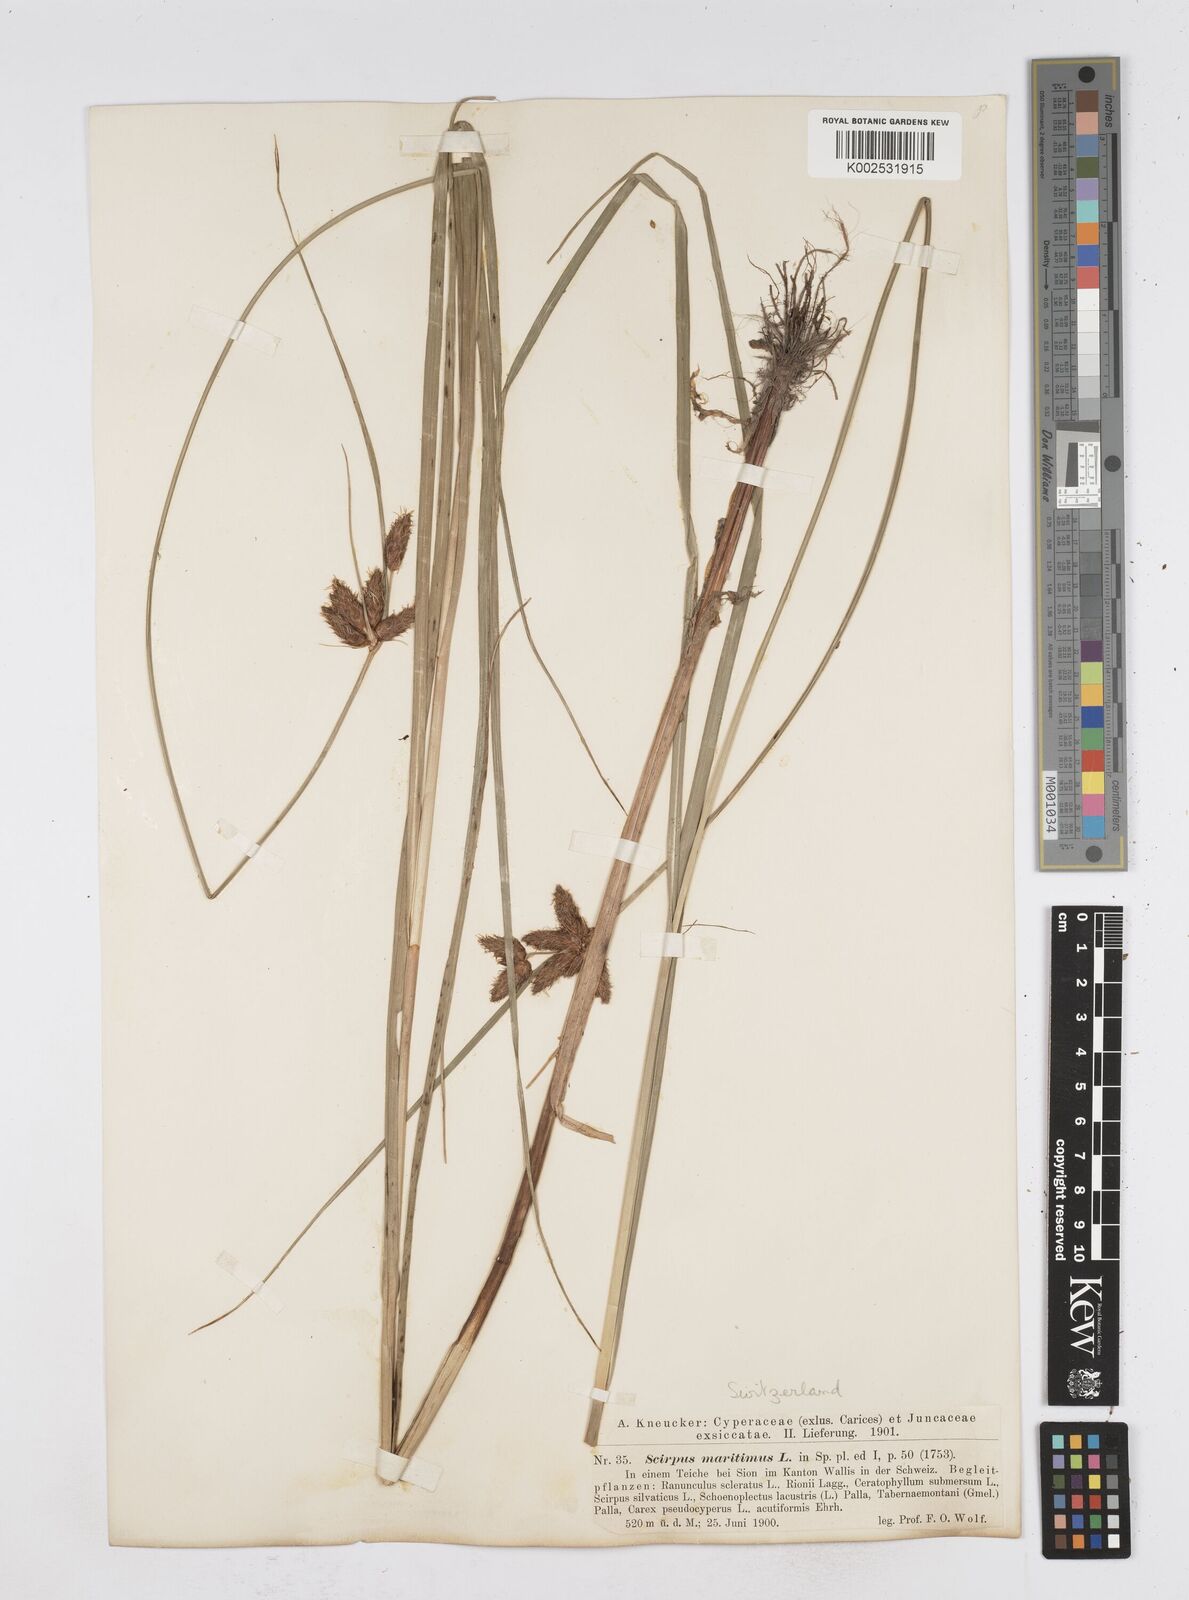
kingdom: Plantae
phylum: Tracheophyta
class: Liliopsida
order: Poales
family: Cyperaceae
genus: Bolboschoenus
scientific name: Bolboschoenus maritimus
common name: Sea club-rush
